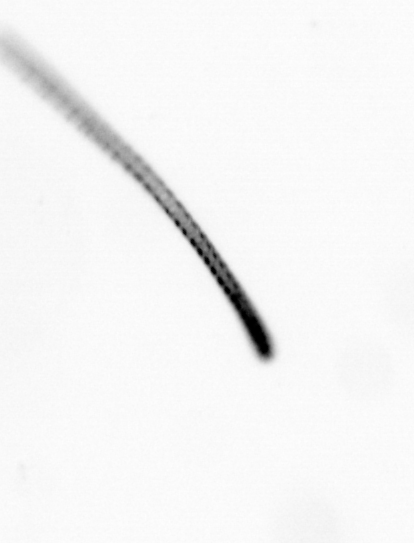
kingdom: Chromista
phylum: Ochrophyta
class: Bacillariophyceae
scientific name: Bacillariophyceae
